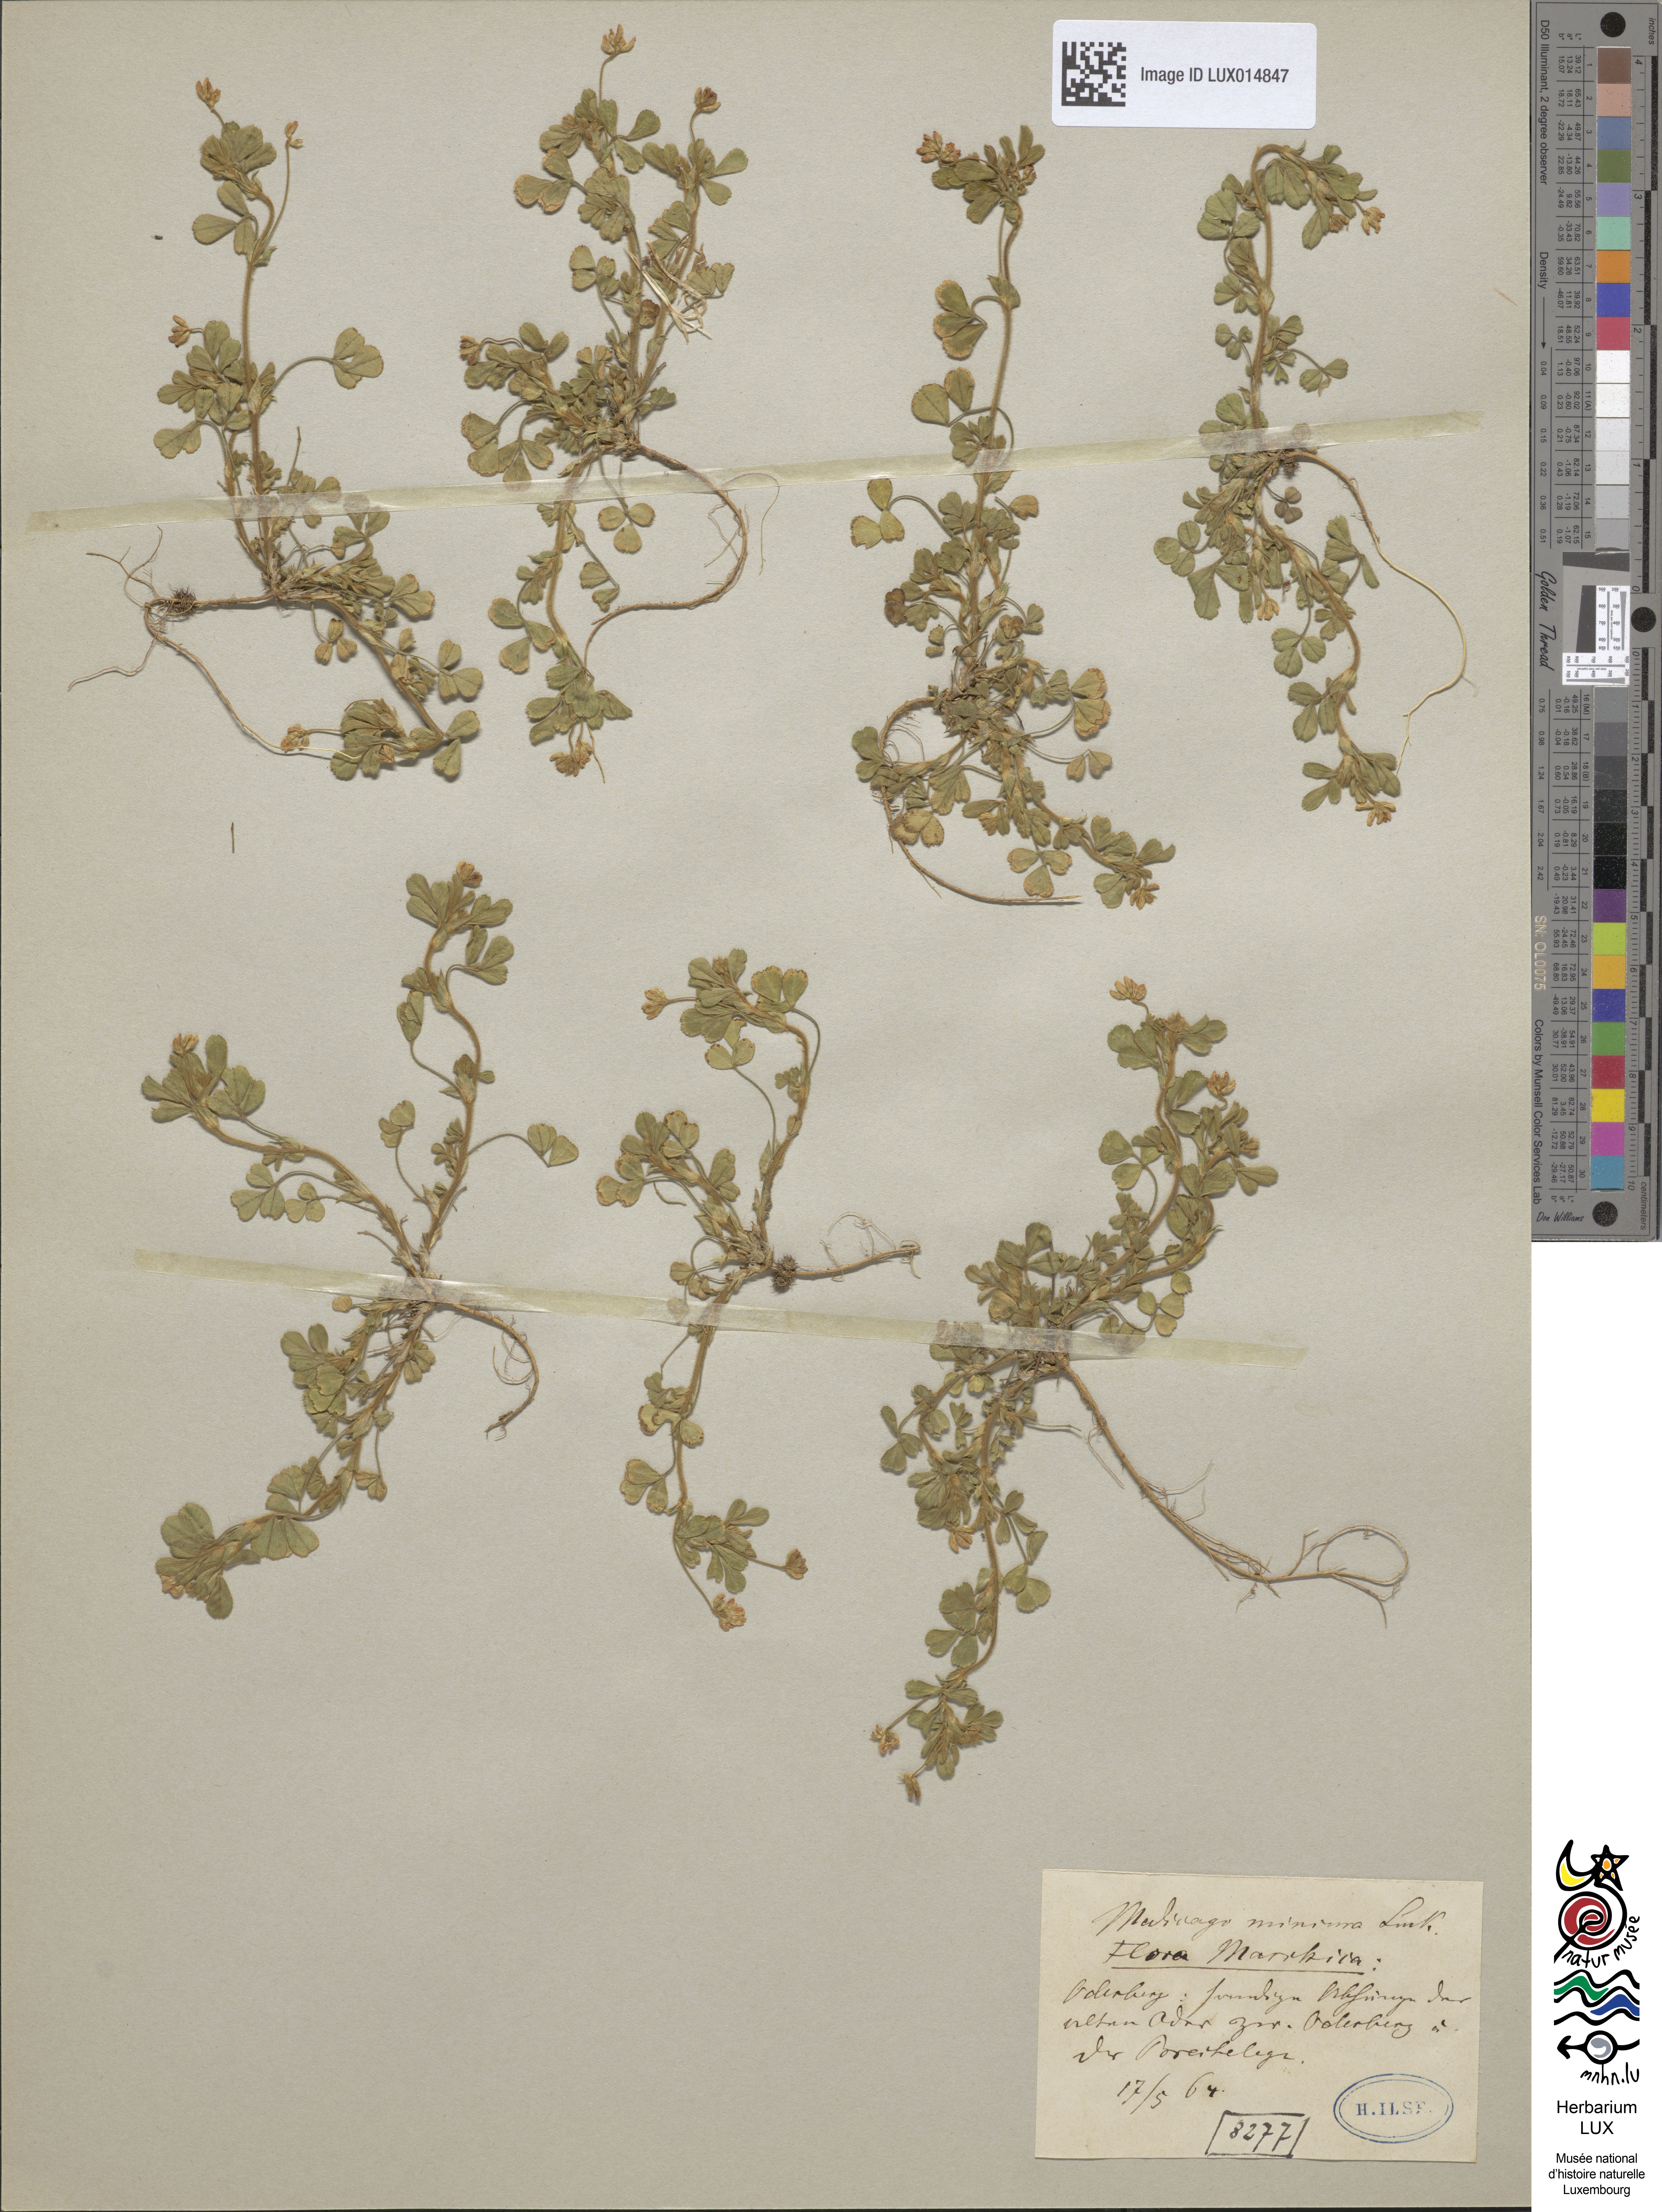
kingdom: Plantae
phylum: Tracheophyta
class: Magnoliopsida
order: Fabales
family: Fabaceae
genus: Medicago
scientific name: Medicago minima
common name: Little bur-clover
